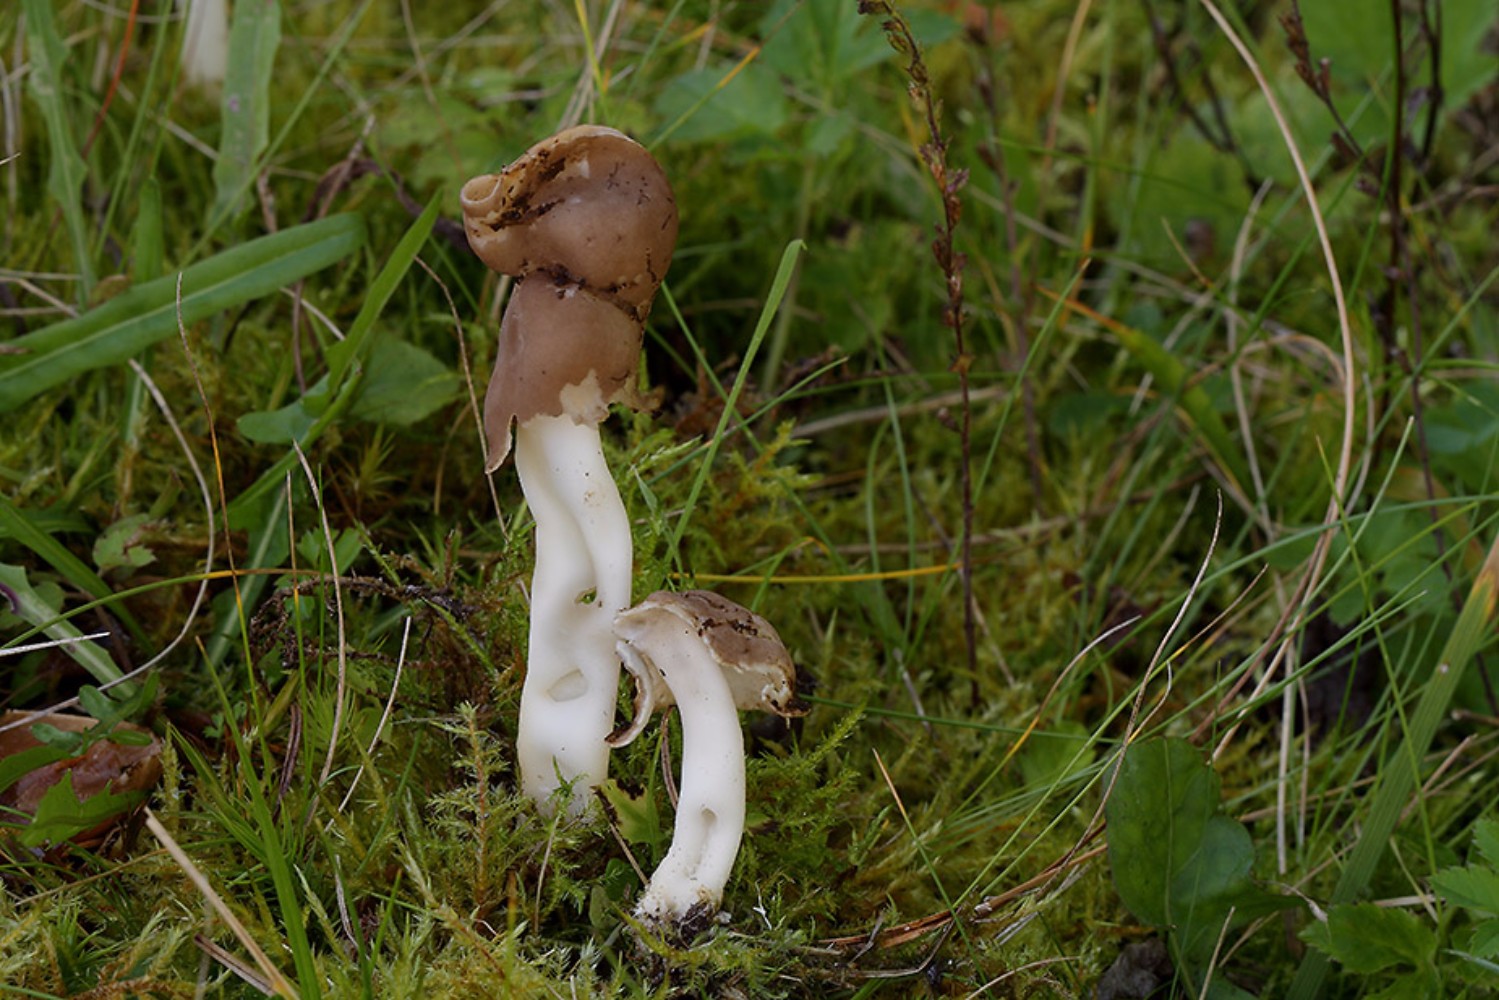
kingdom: Fungi
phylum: Ascomycota
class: Pezizomycetes
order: Pezizales
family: Helvellaceae
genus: Helvella
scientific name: Helvella elastica
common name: elastik-foldhat
